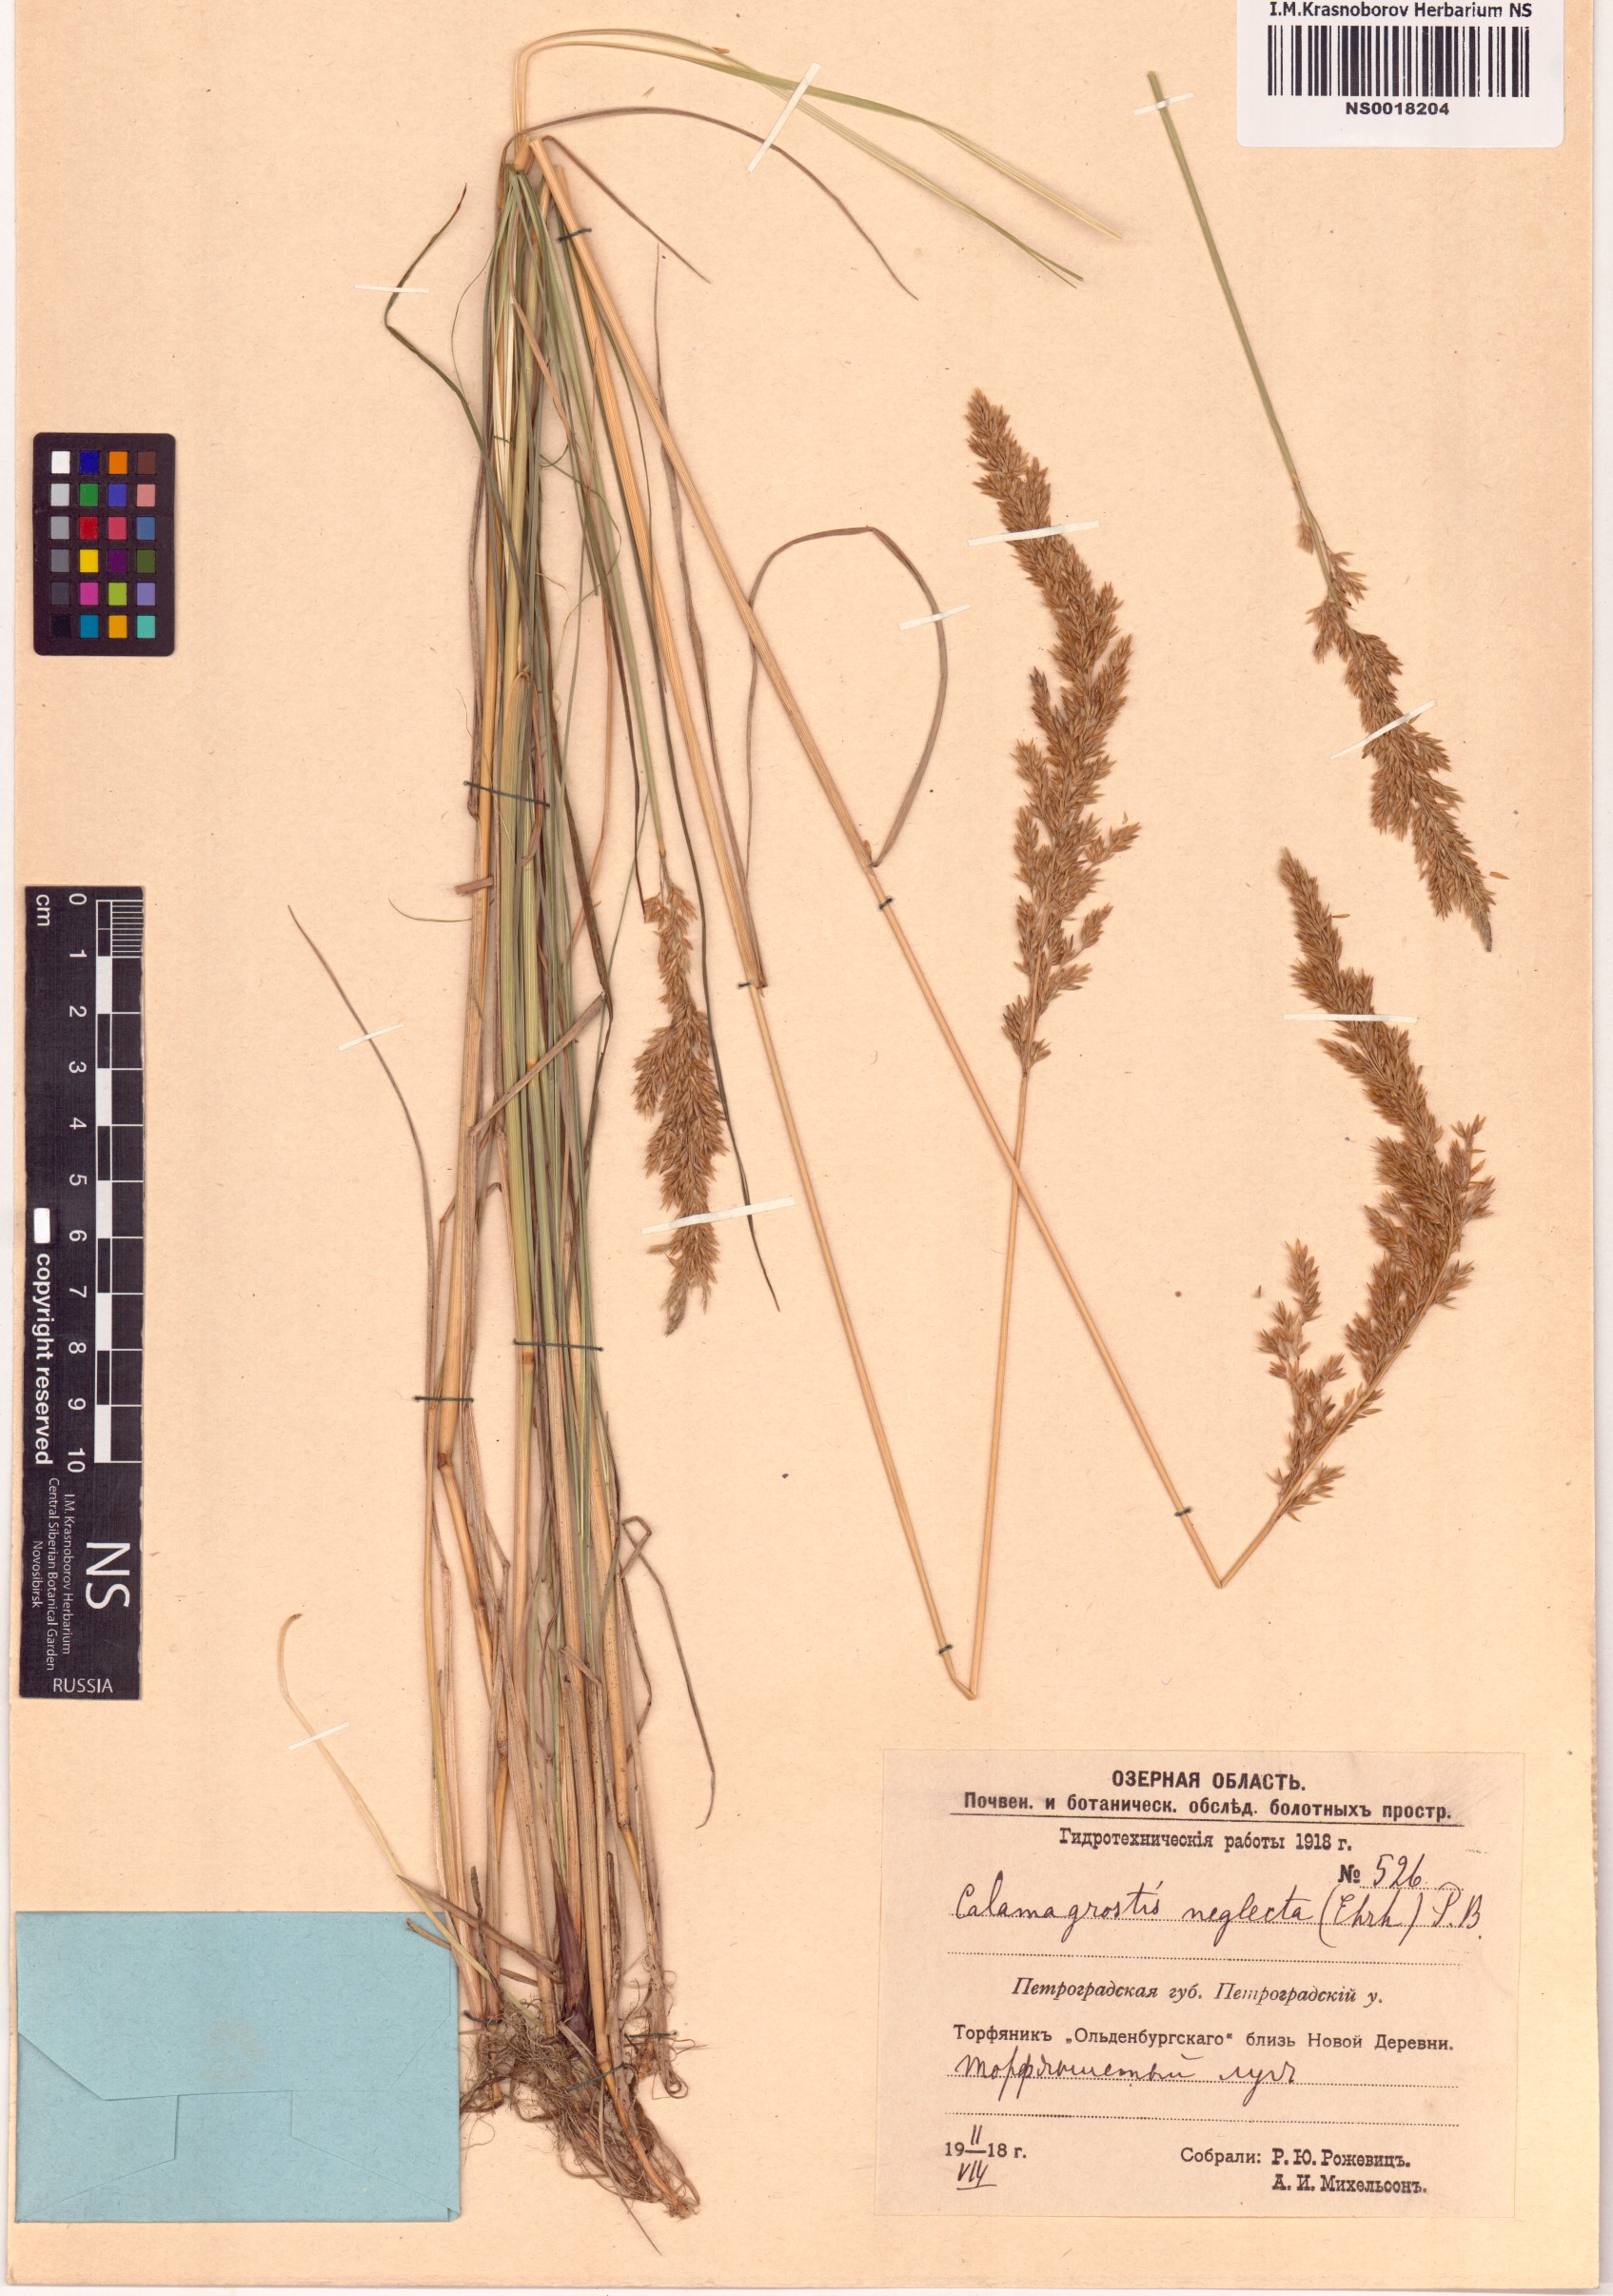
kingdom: Plantae
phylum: Tracheophyta
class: Liliopsida
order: Poales
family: Poaceae
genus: Achnatherum
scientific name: Achnatherum calamagrostis
